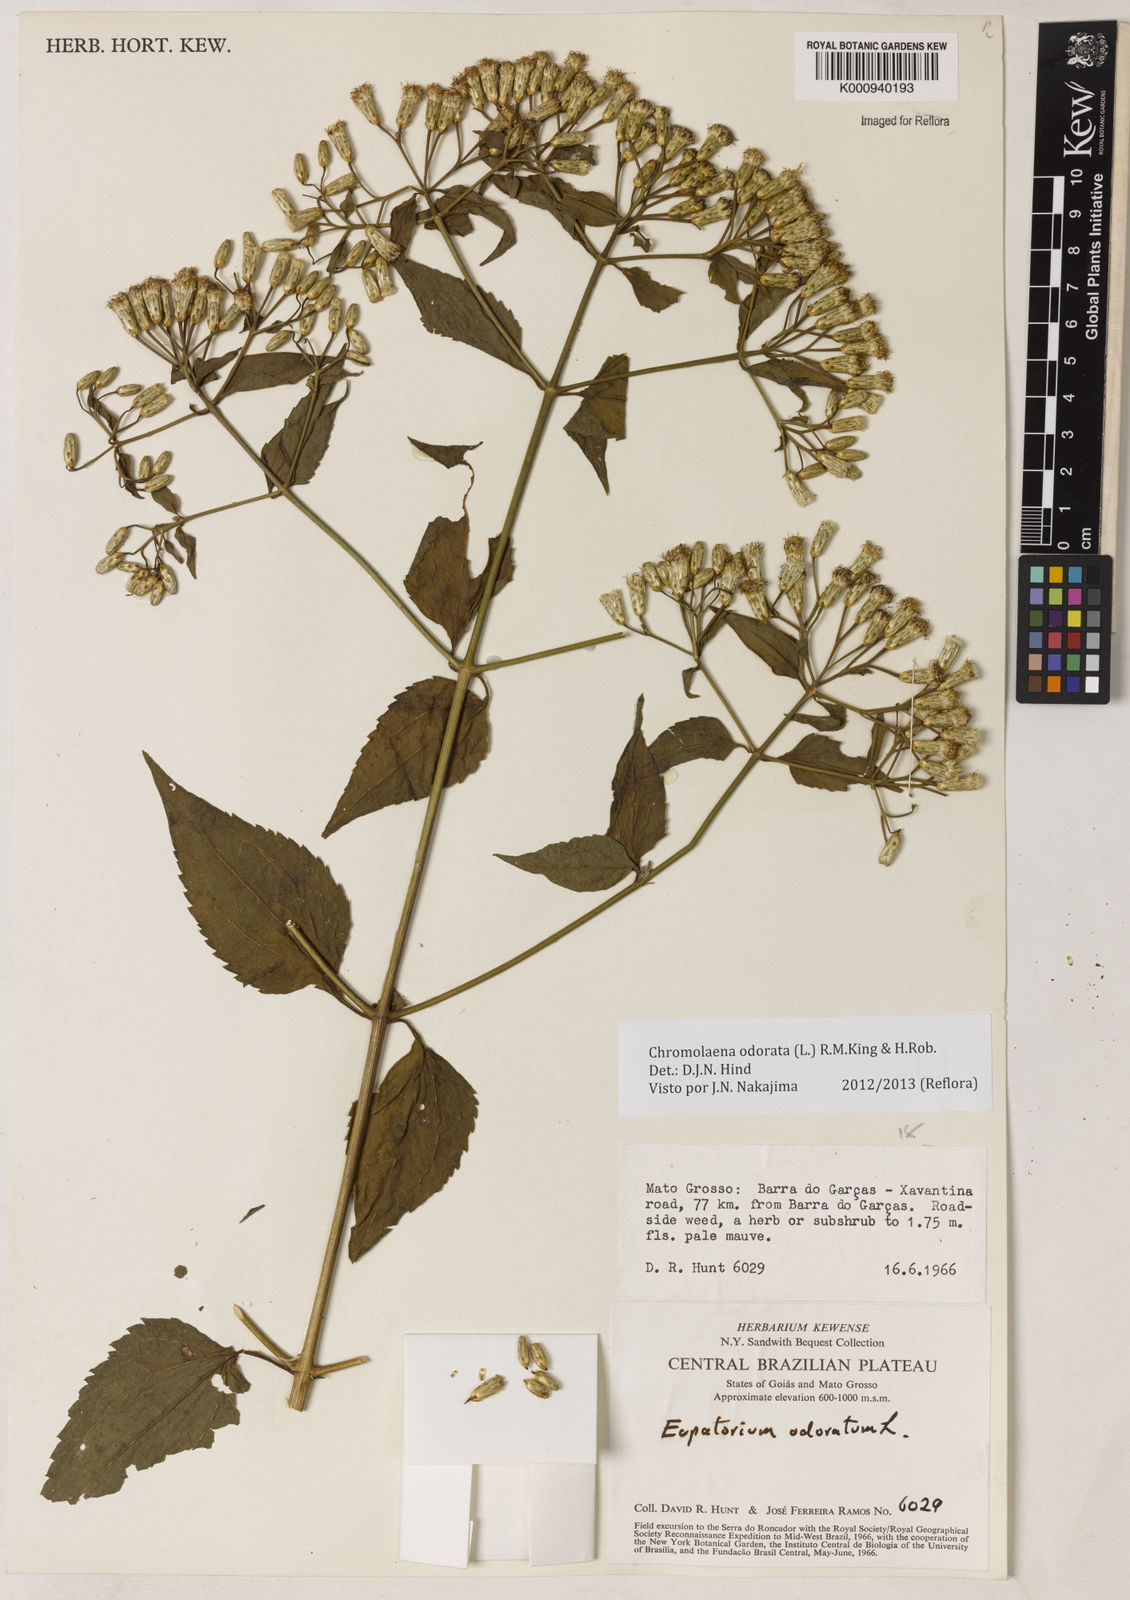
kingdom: Plantae
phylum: Tracheophyta
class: Magnoliopsida
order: Asterales
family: Asteraceae
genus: Chromolaena
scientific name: Chromolaena odorata
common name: Siamweed
